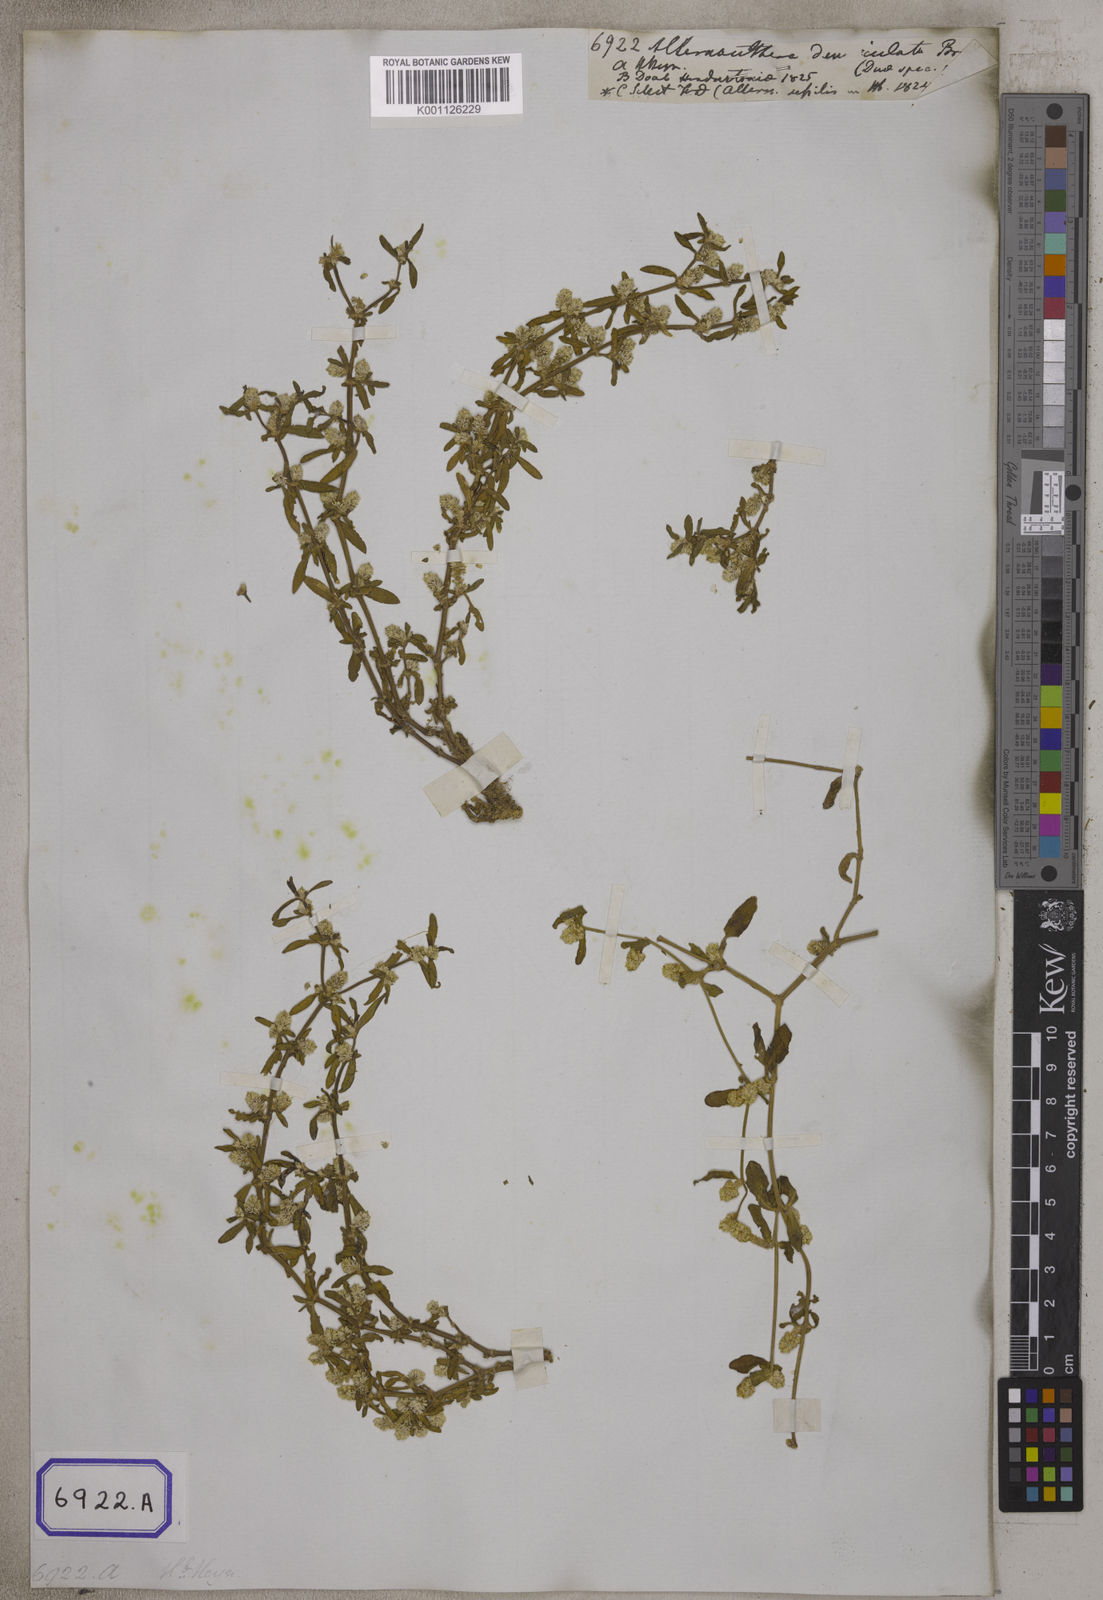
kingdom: Plantae
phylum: Tracheophyta
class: Magnoliopsida
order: Caryophyllales
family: Amaranthaceae
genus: Alternanthera
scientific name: Alternanthera
